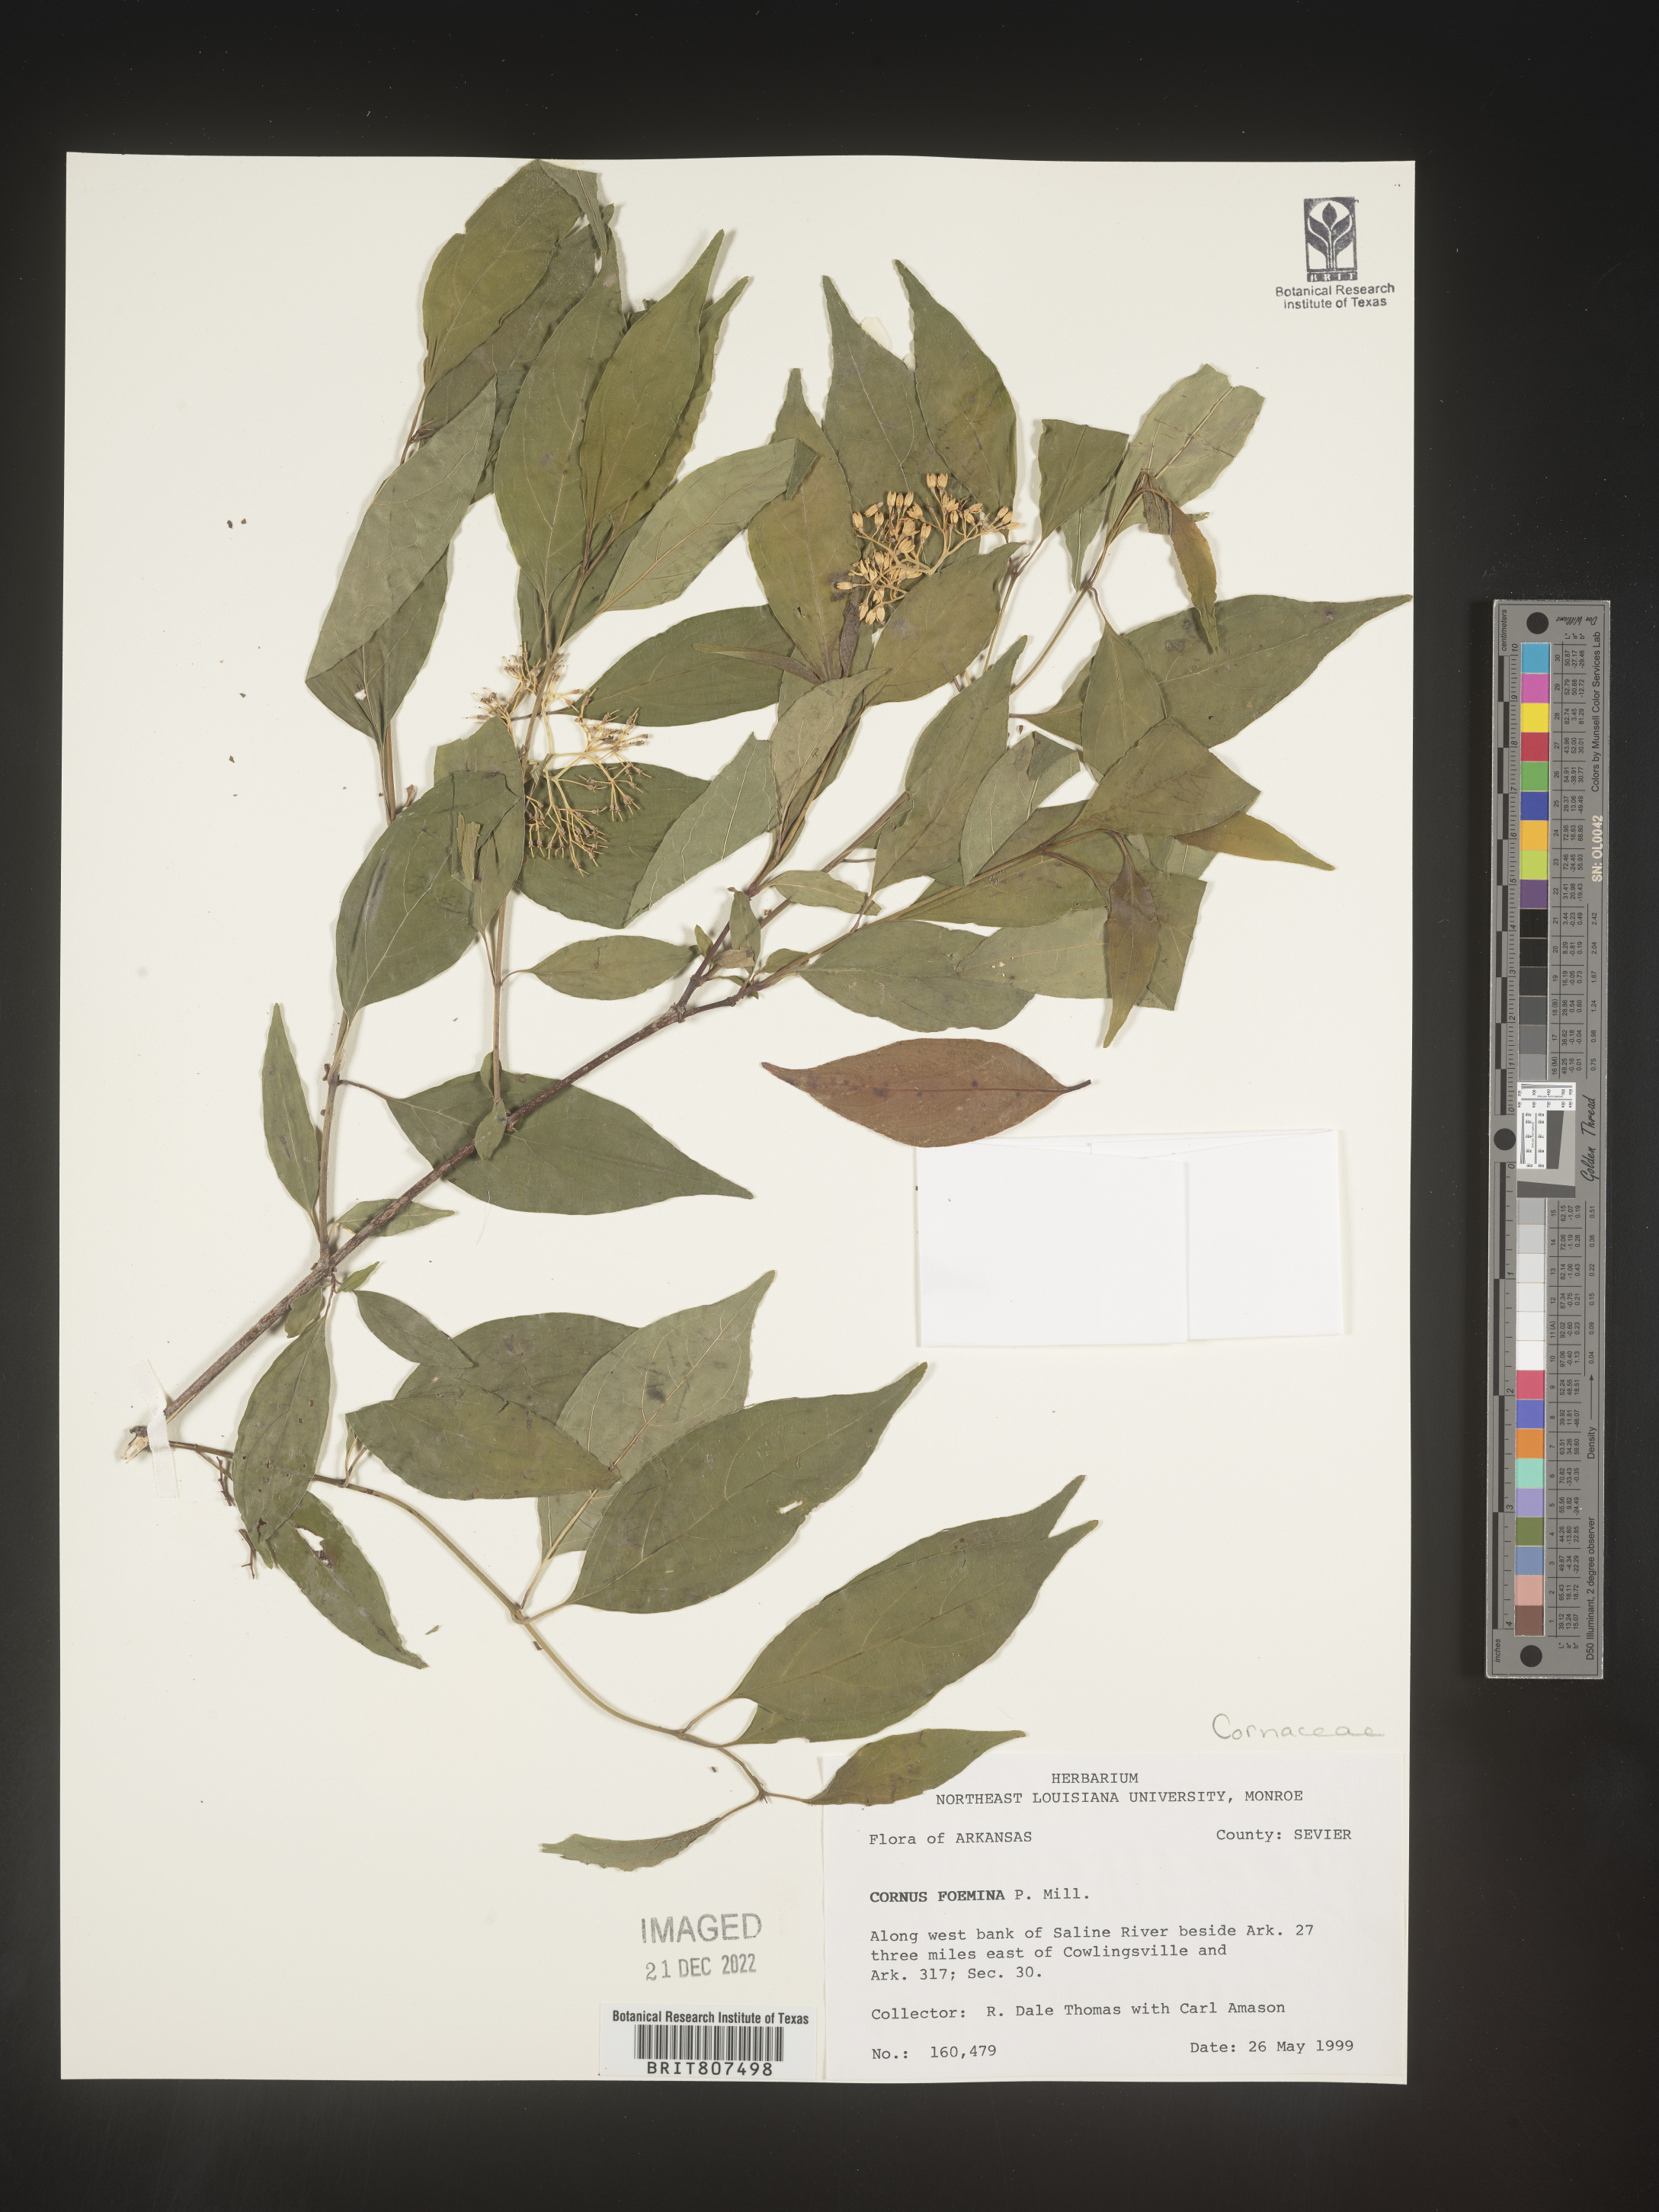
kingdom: Plantae
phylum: Tracheophyta
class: Magnoliopsida
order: Cornales
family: Cornaceae
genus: Cornus
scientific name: Cornus foemina
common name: Swamp dogwood
